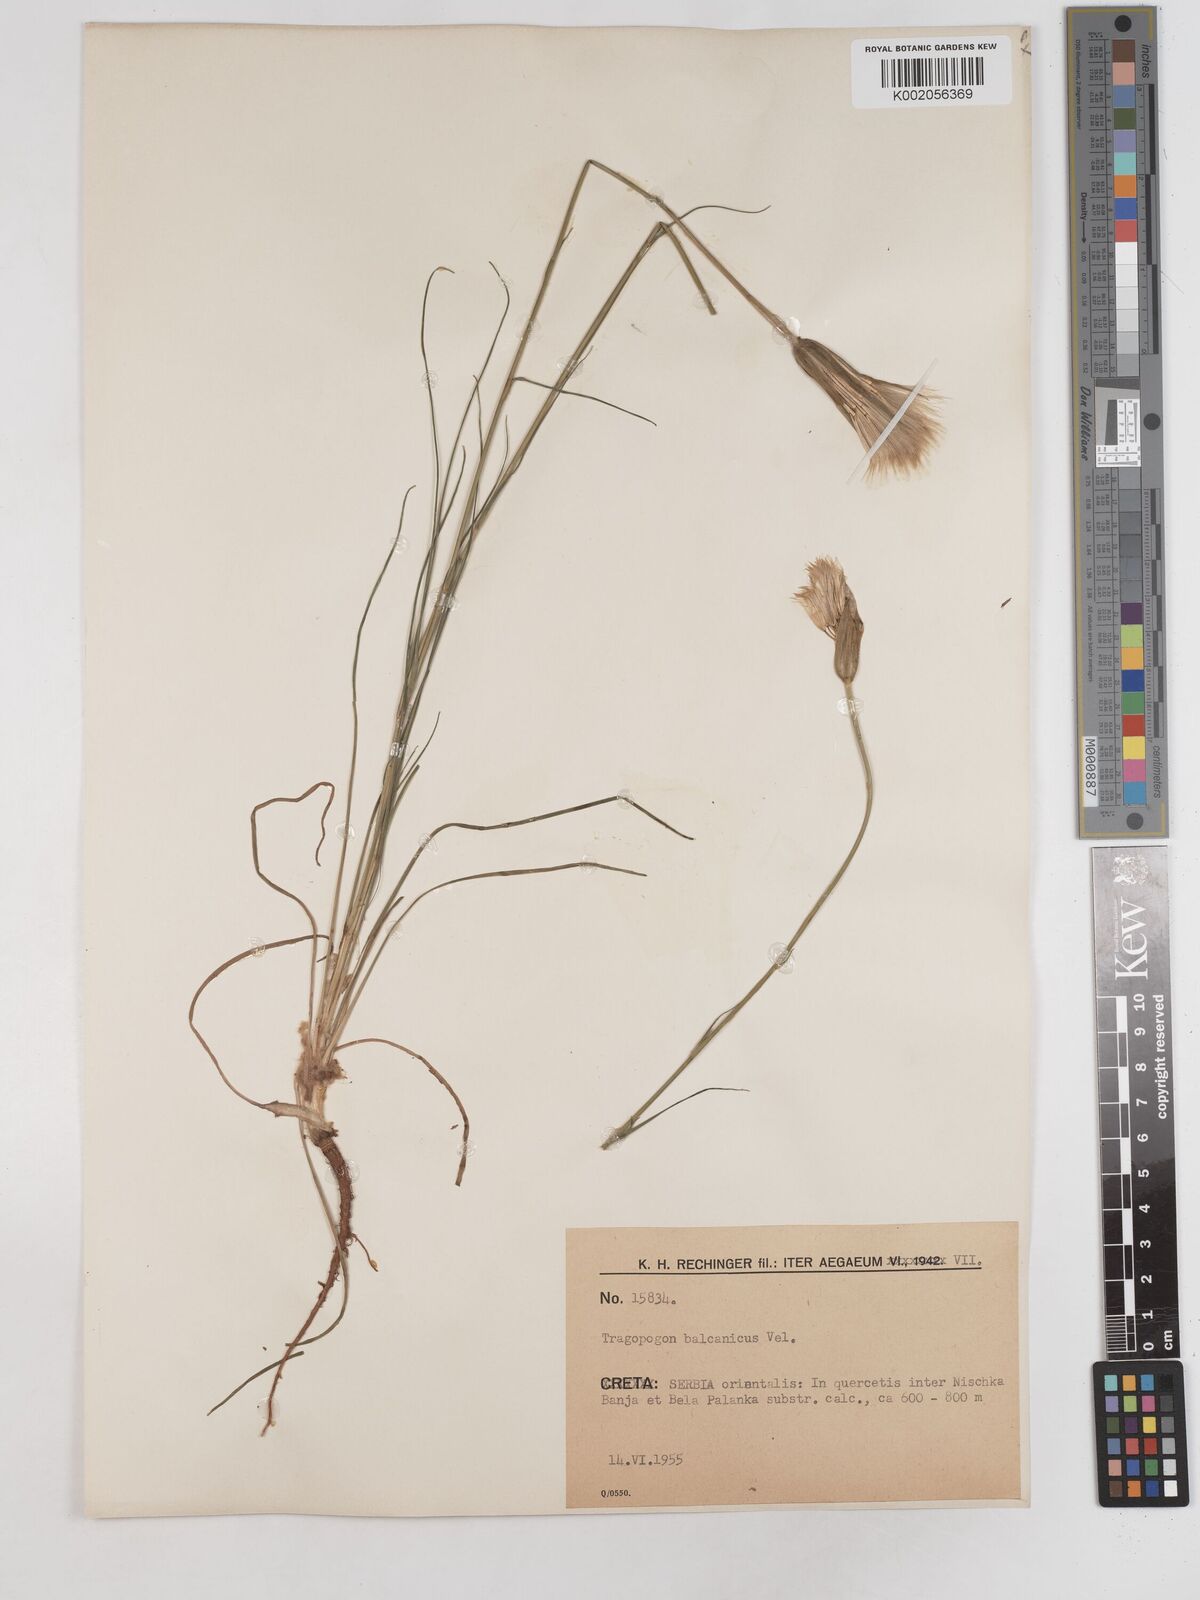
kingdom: Plantae
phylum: Tracheophyta
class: Magnoliopsida
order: Asterales
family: Asteraceae
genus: Tragopogon
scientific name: Tragopogon balcanicus
